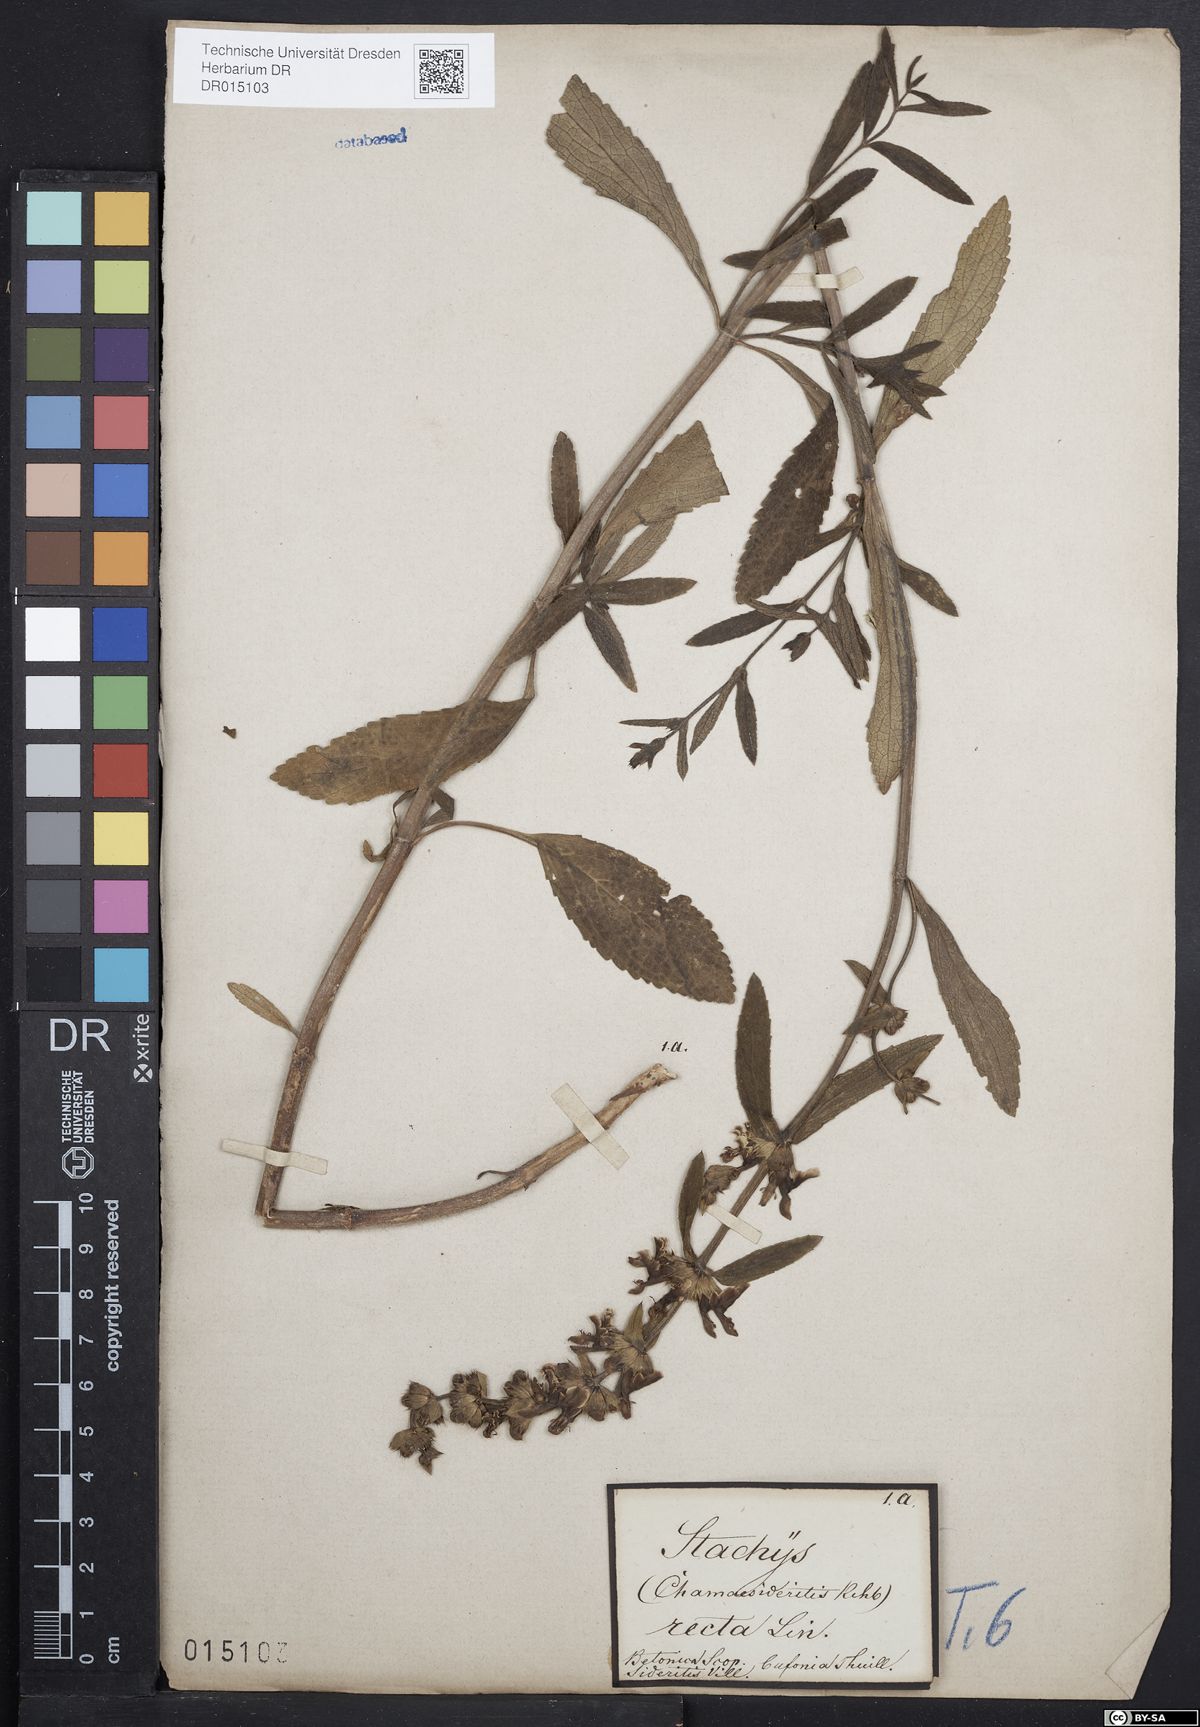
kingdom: Plantae
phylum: Tracheophyta
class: Magnoliopsida
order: Lamiales
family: Lamiaceae
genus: Stachys
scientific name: Stachys recta
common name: Perennial yellow-woundwort
